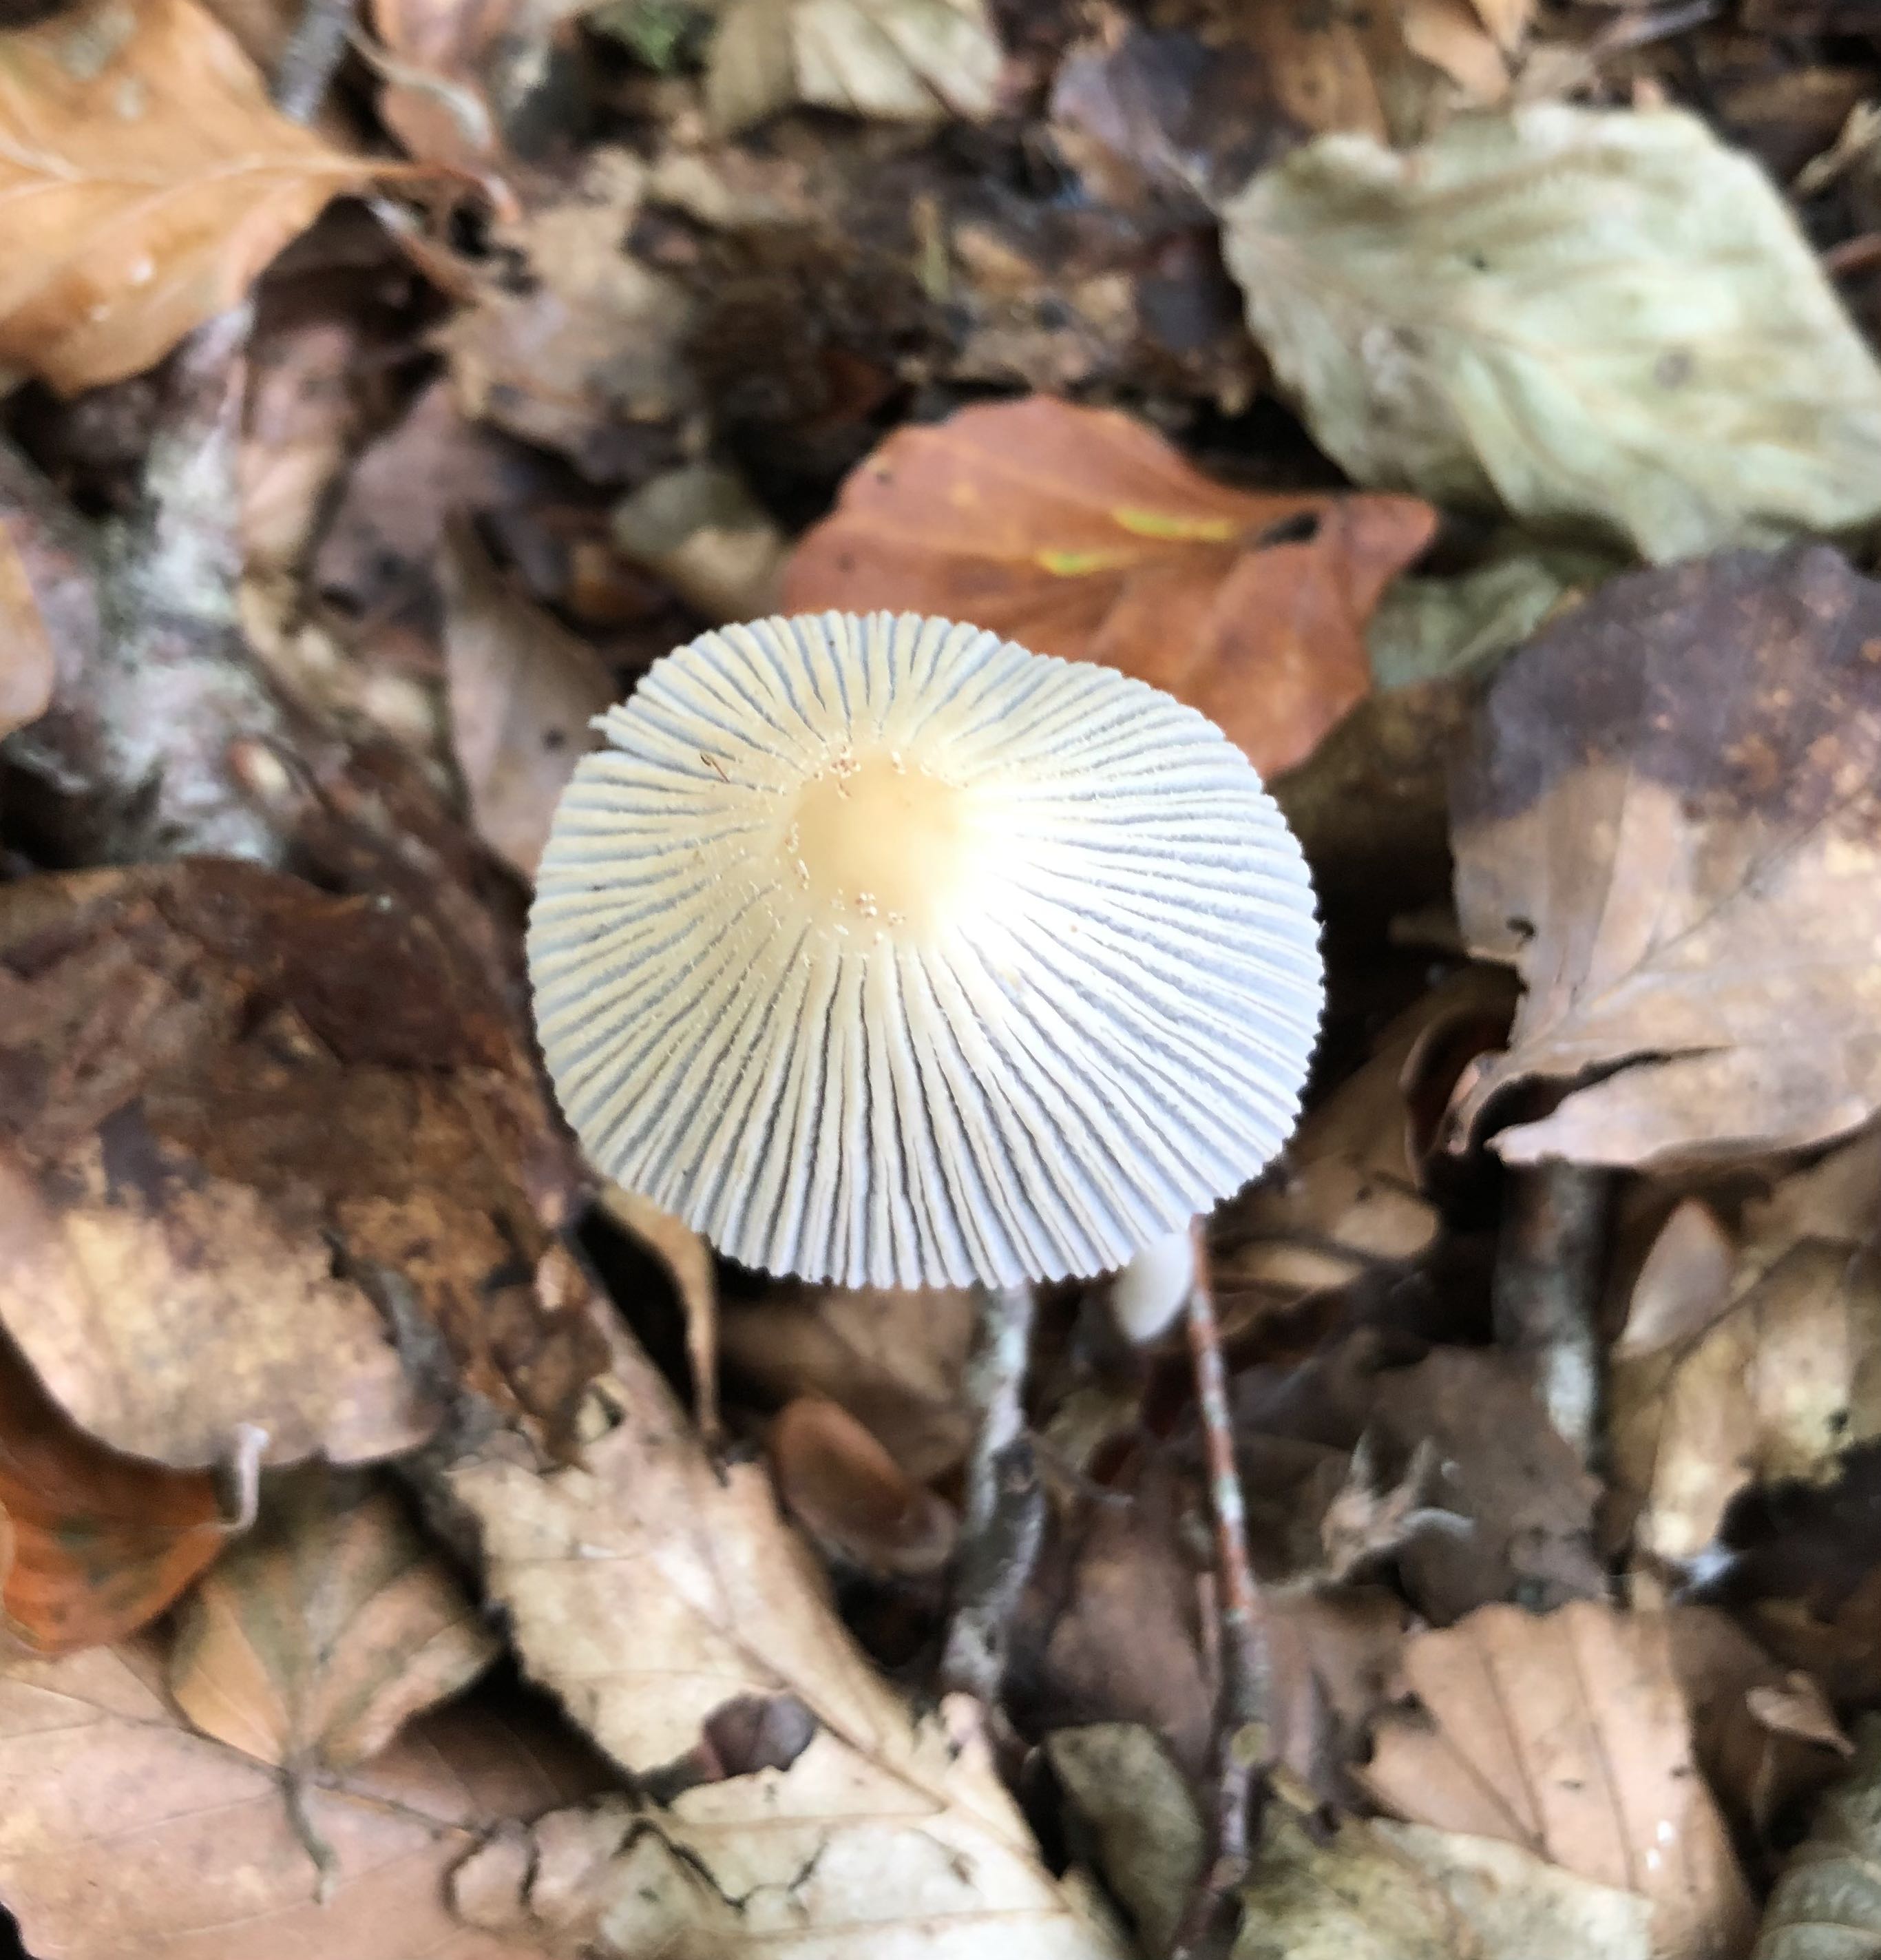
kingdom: Fungi
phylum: Basidiomycota
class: Agaricomycetes
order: Agaricales
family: Psathyrellaceae
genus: Coprinellus
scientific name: Coprinellus
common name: blækhat
